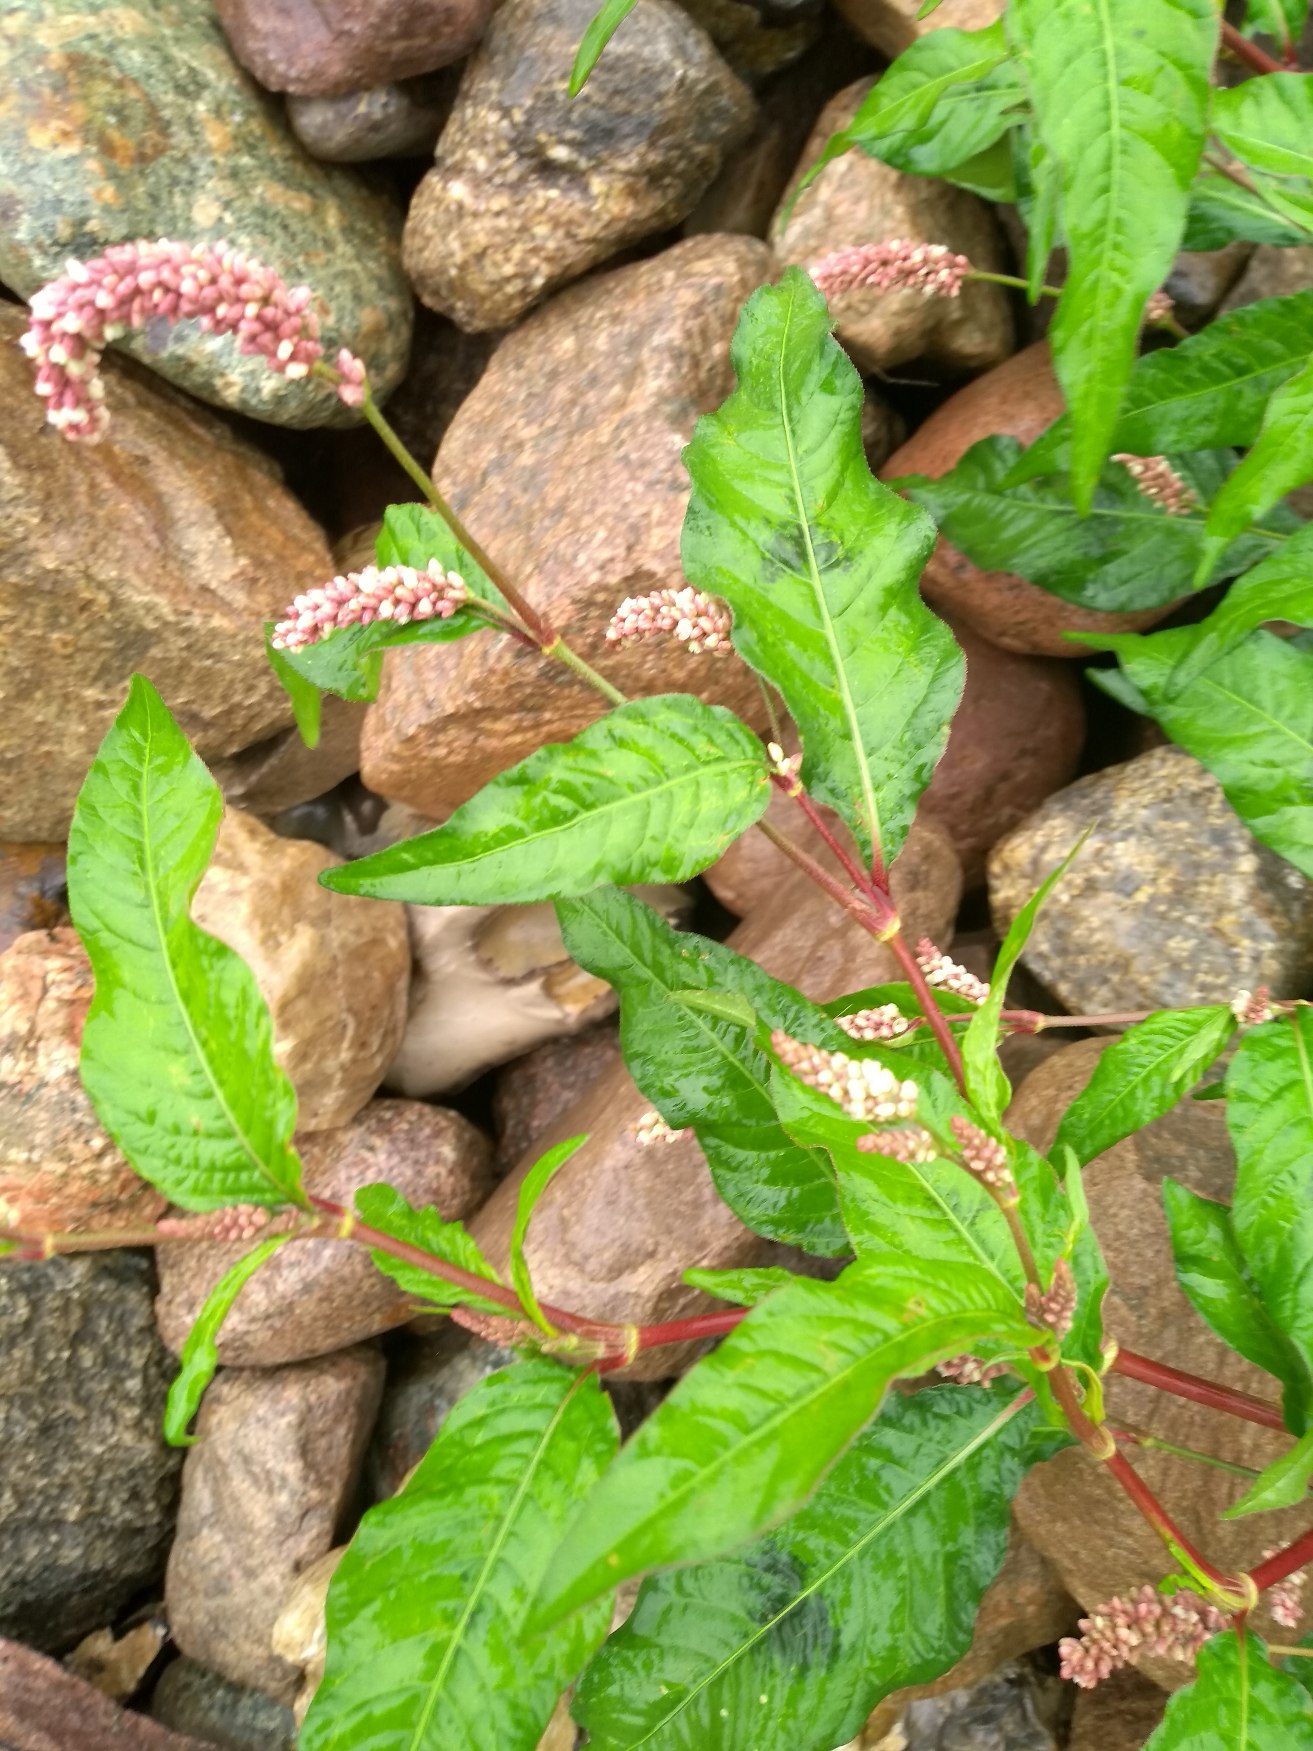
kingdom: Plantae
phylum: Tracheophyta
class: Magnoliopsida
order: Caryophyllales
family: Polygonaceae
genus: Persicaria
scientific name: Persicaria maculosa
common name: Fersken-pileurt
